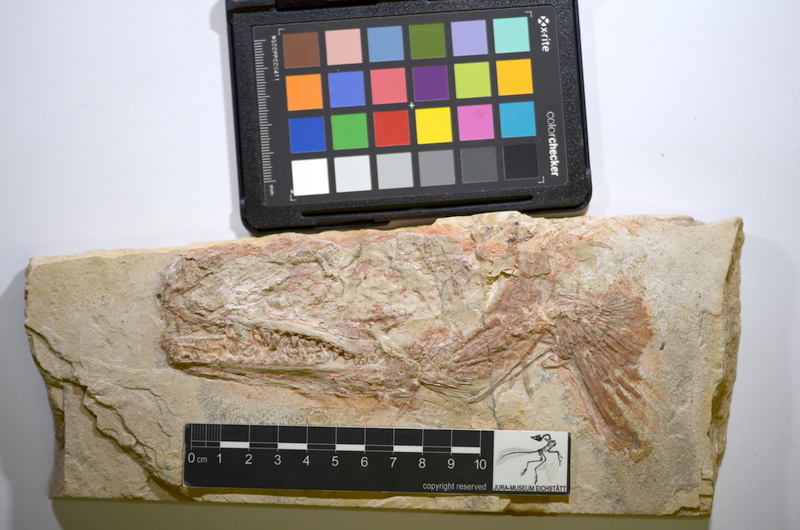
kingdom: Animalia
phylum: Chordata
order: Amiiformes
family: Caturidae
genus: Caturus
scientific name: Caturus giganteus
